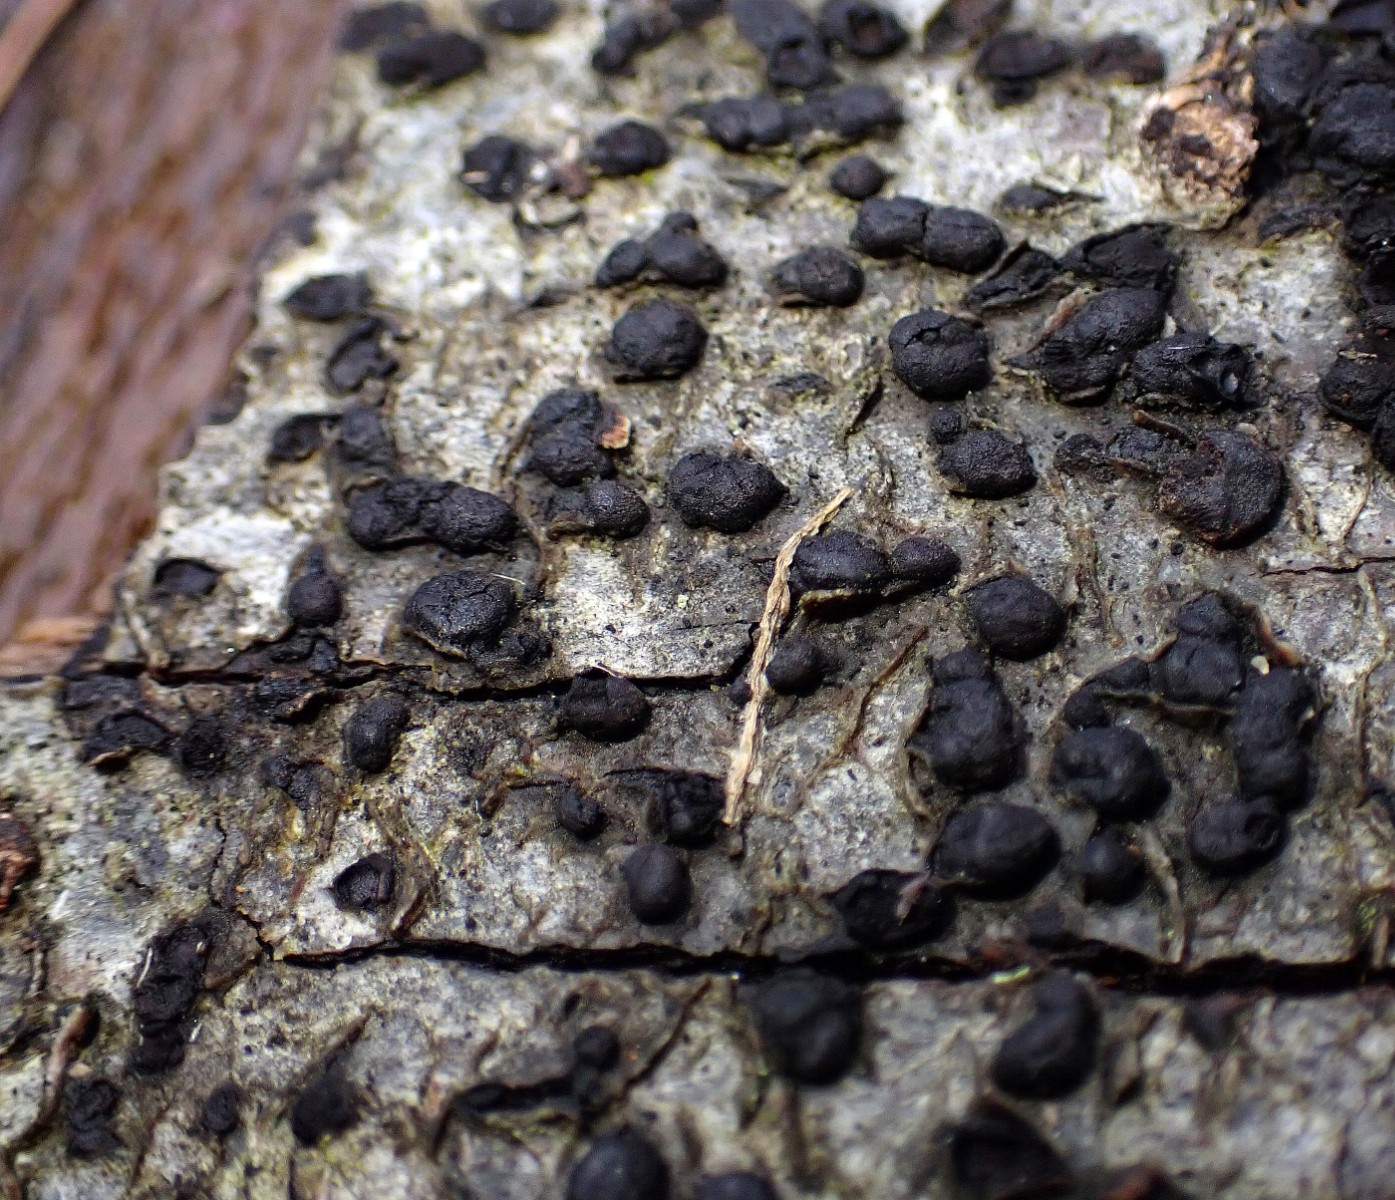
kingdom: Fungi
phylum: Ascomycota
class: Sordariomycetes
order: Xylariales
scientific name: Xylariales
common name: stødsvampordenen
